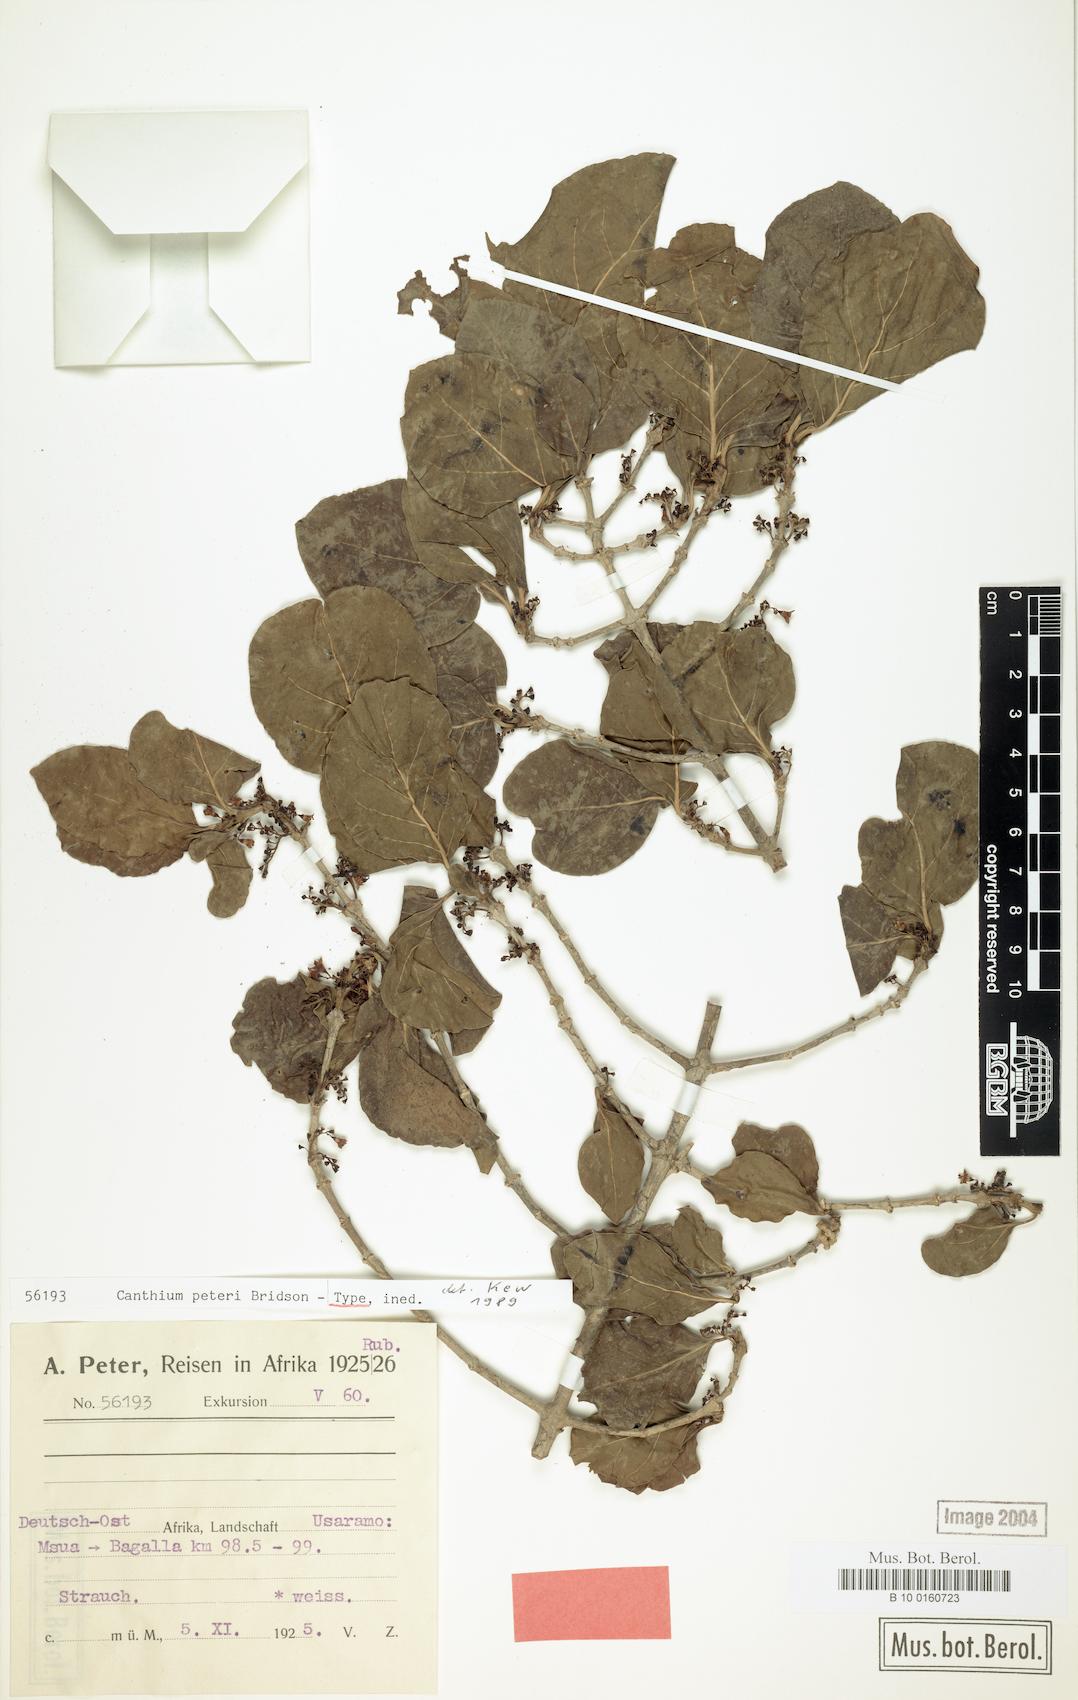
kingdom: Plantae
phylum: Tracheophyta
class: Magnoliopsida
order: Gentianales
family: Rubiaceae
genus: Afrocanthium
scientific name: Afrocanthium peteri
